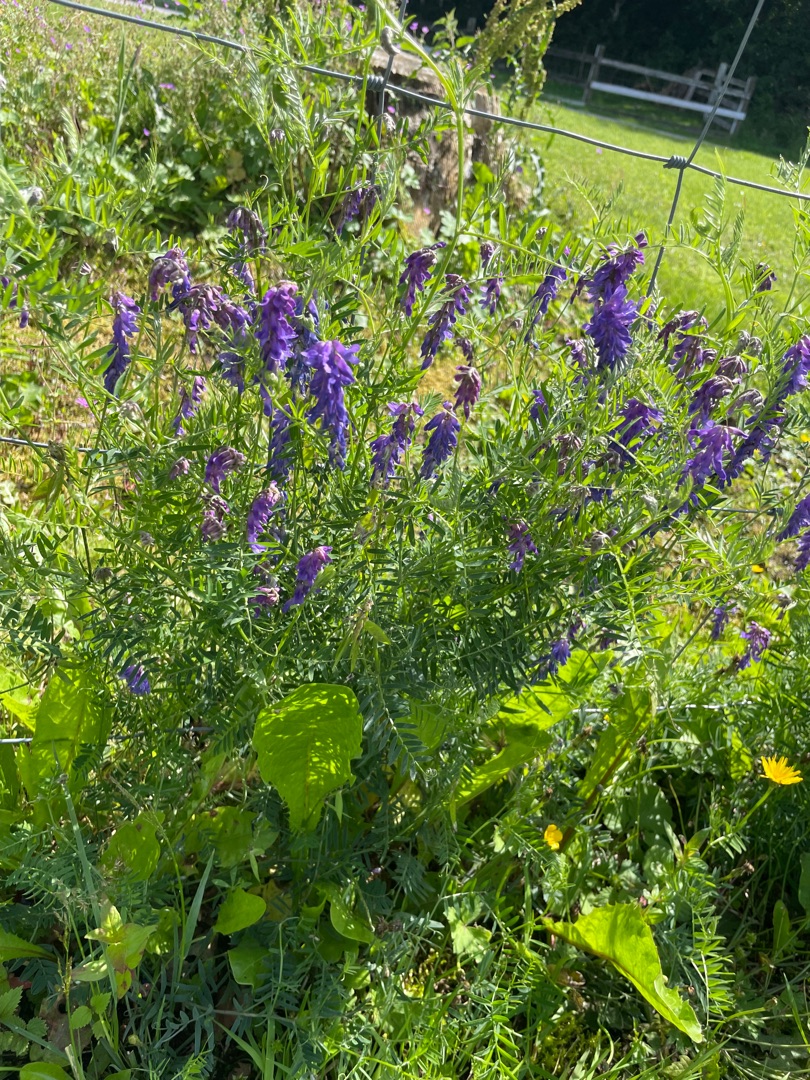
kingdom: Plantae
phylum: Tracheophyta
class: Magnoliopsida
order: Fabales
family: Fabaceae
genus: Vicia
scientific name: Vicia cracca
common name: Muse-vikke
